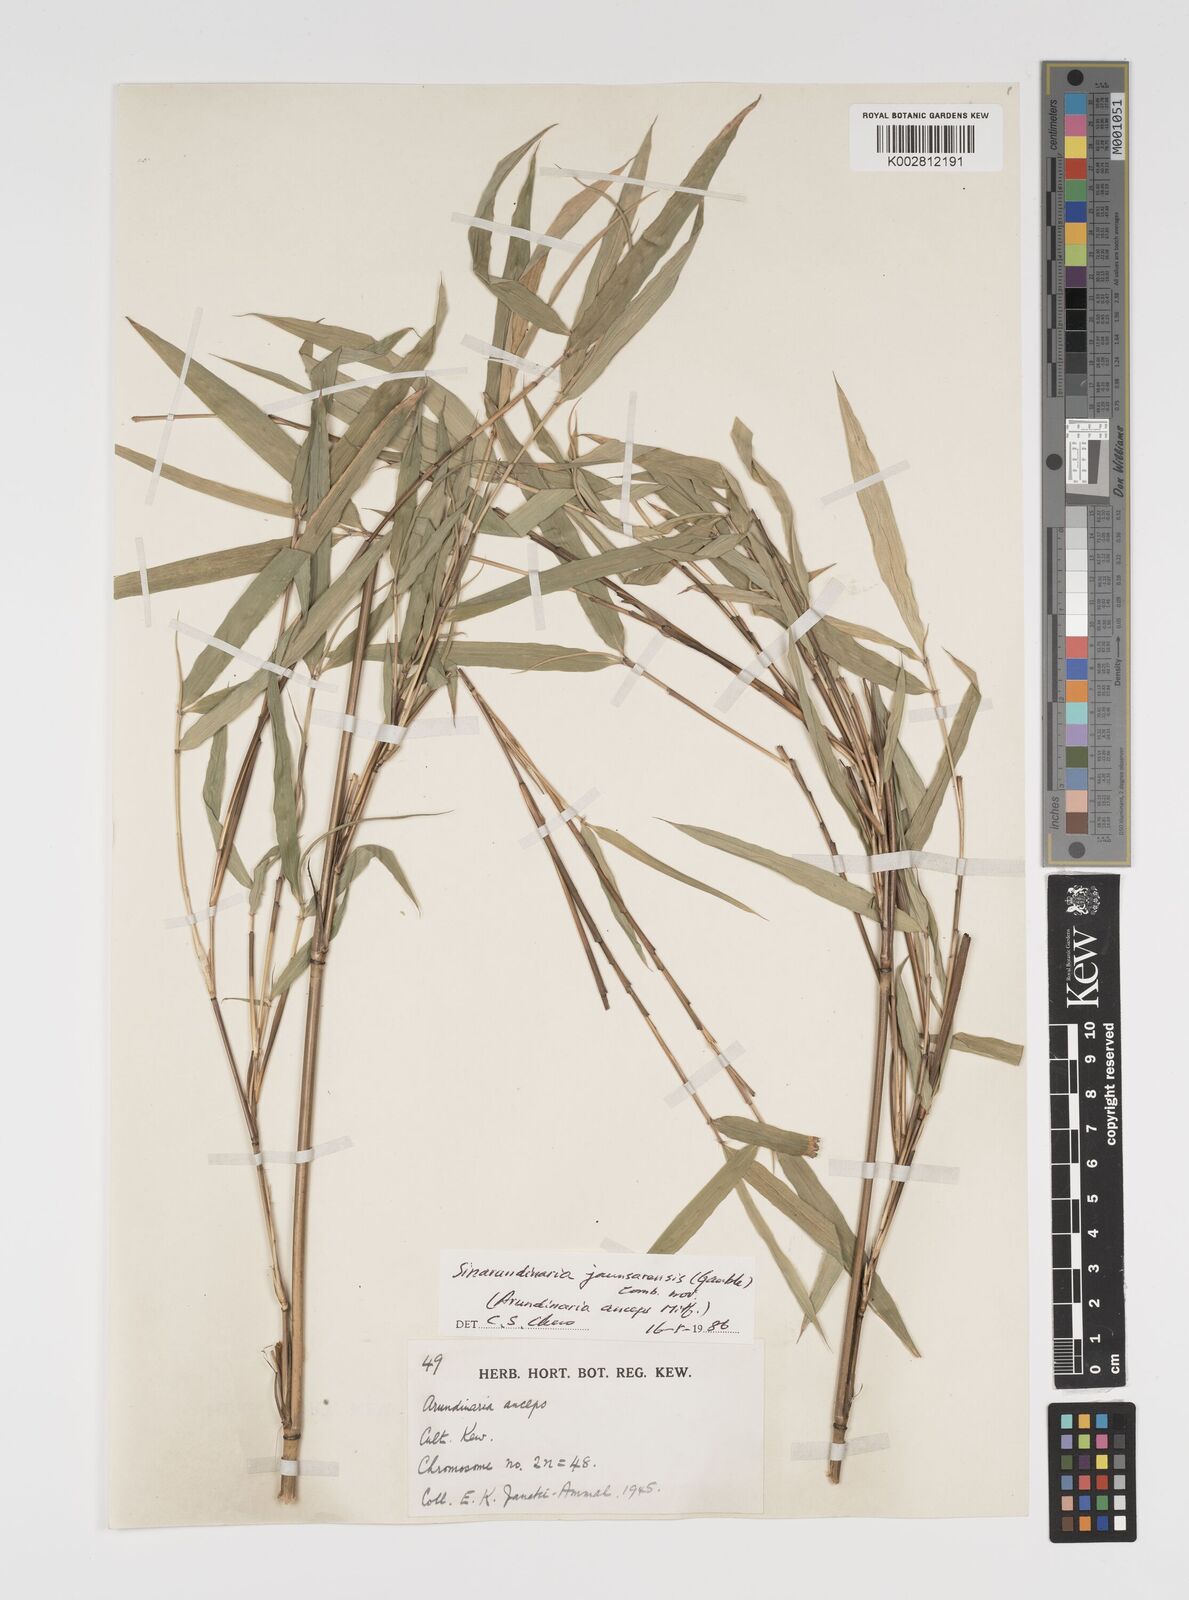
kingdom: Plantae
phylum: Tracheophyta
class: Liliopsida
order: Poales
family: Poaceae
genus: Yushania
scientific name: Yushania anceps
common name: Indian fountain-bamboo
